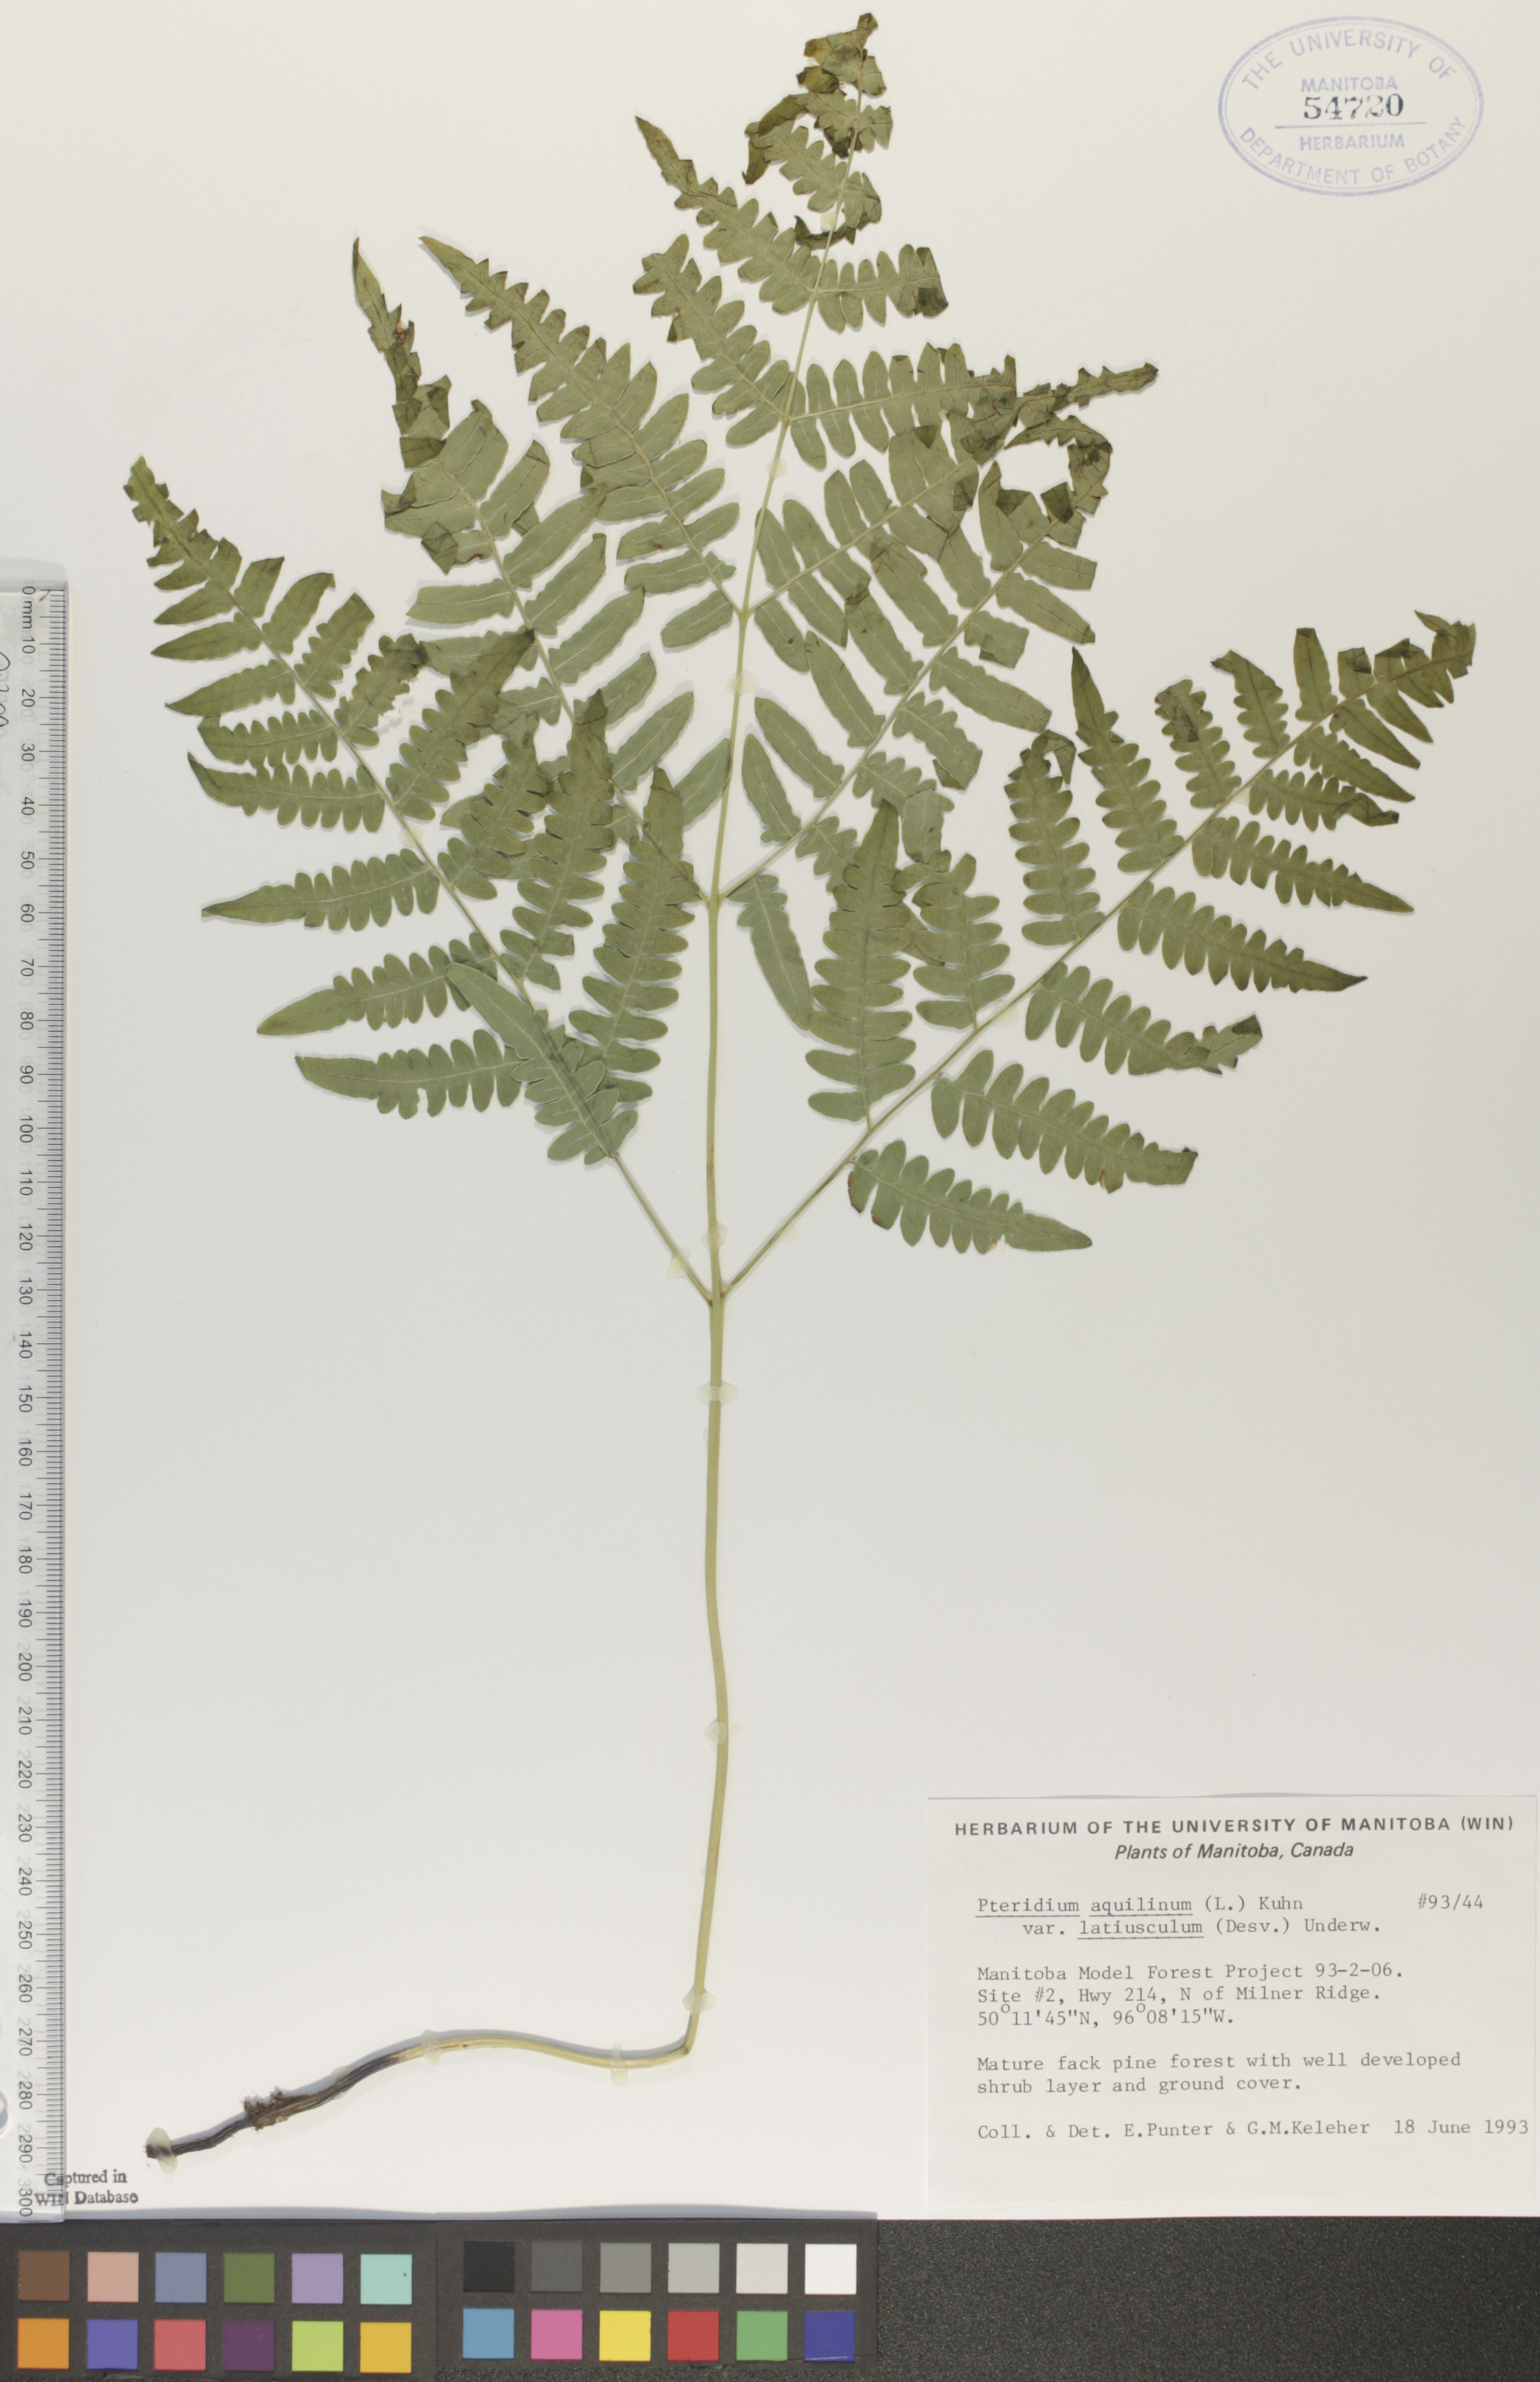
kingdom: Plantae
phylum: Tracheophyta
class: Polypodiopsida
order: Polypodiales
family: Dennstaedtiaceae
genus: Pteridium
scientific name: Pteridium aquilinum
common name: Bracken
